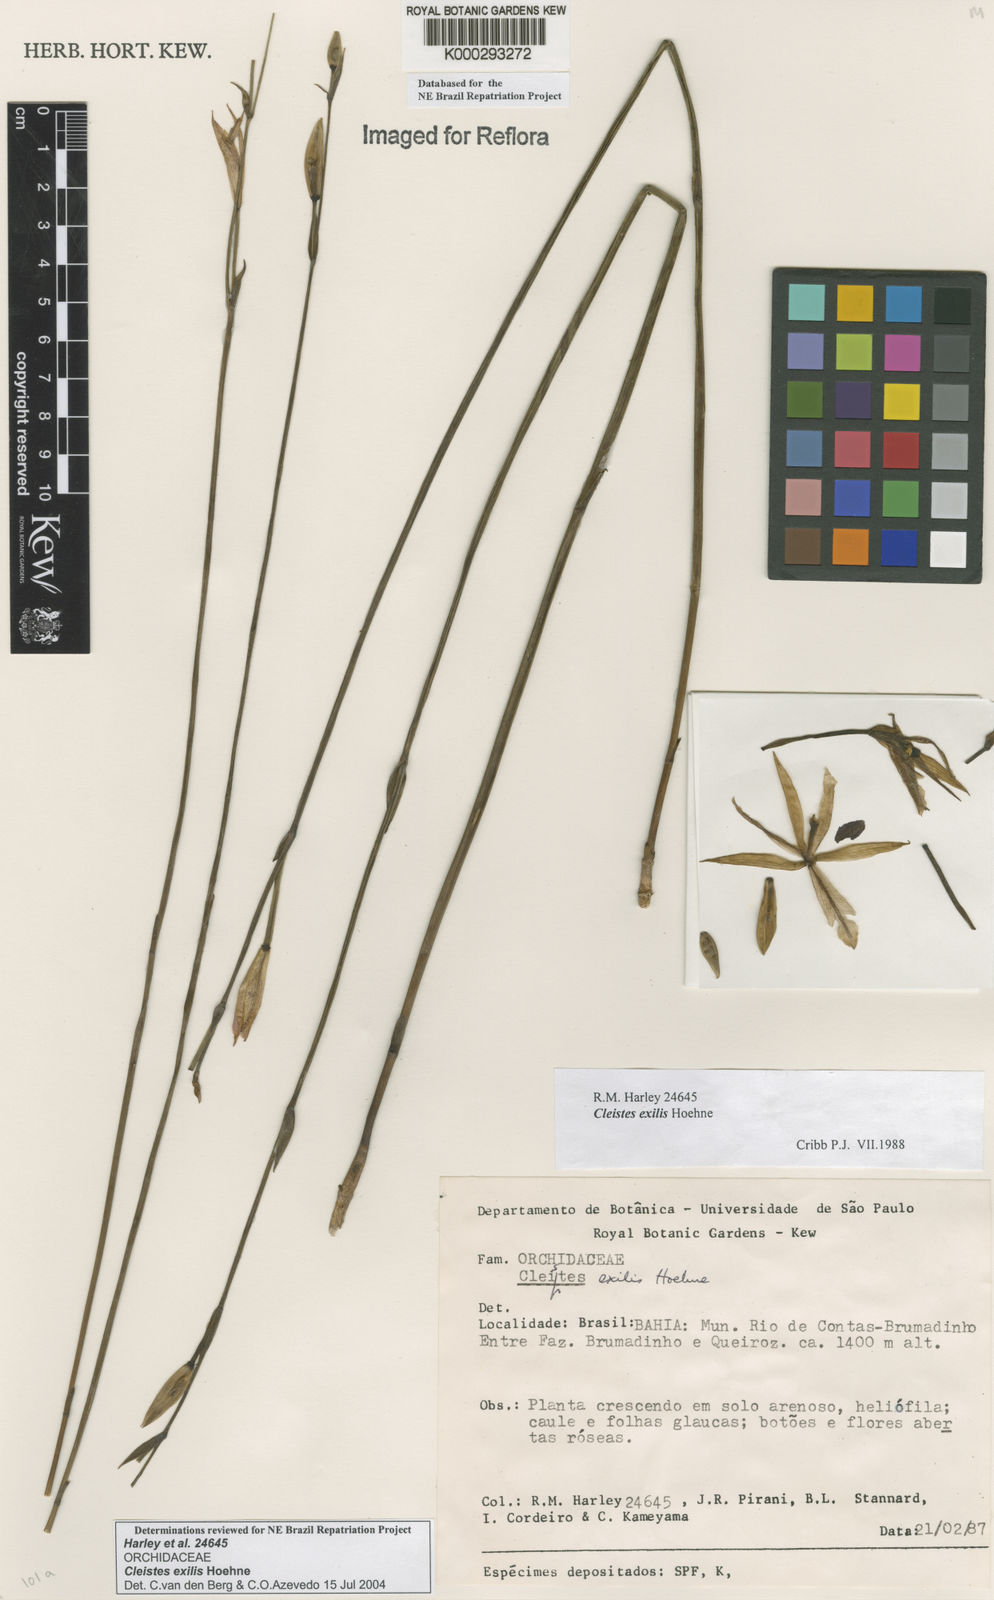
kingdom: Plantae
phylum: Tracheophyta
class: Liliopsida
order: Asparagales
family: Orchidaceae
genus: Cleistes
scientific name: Cleistes exilis
